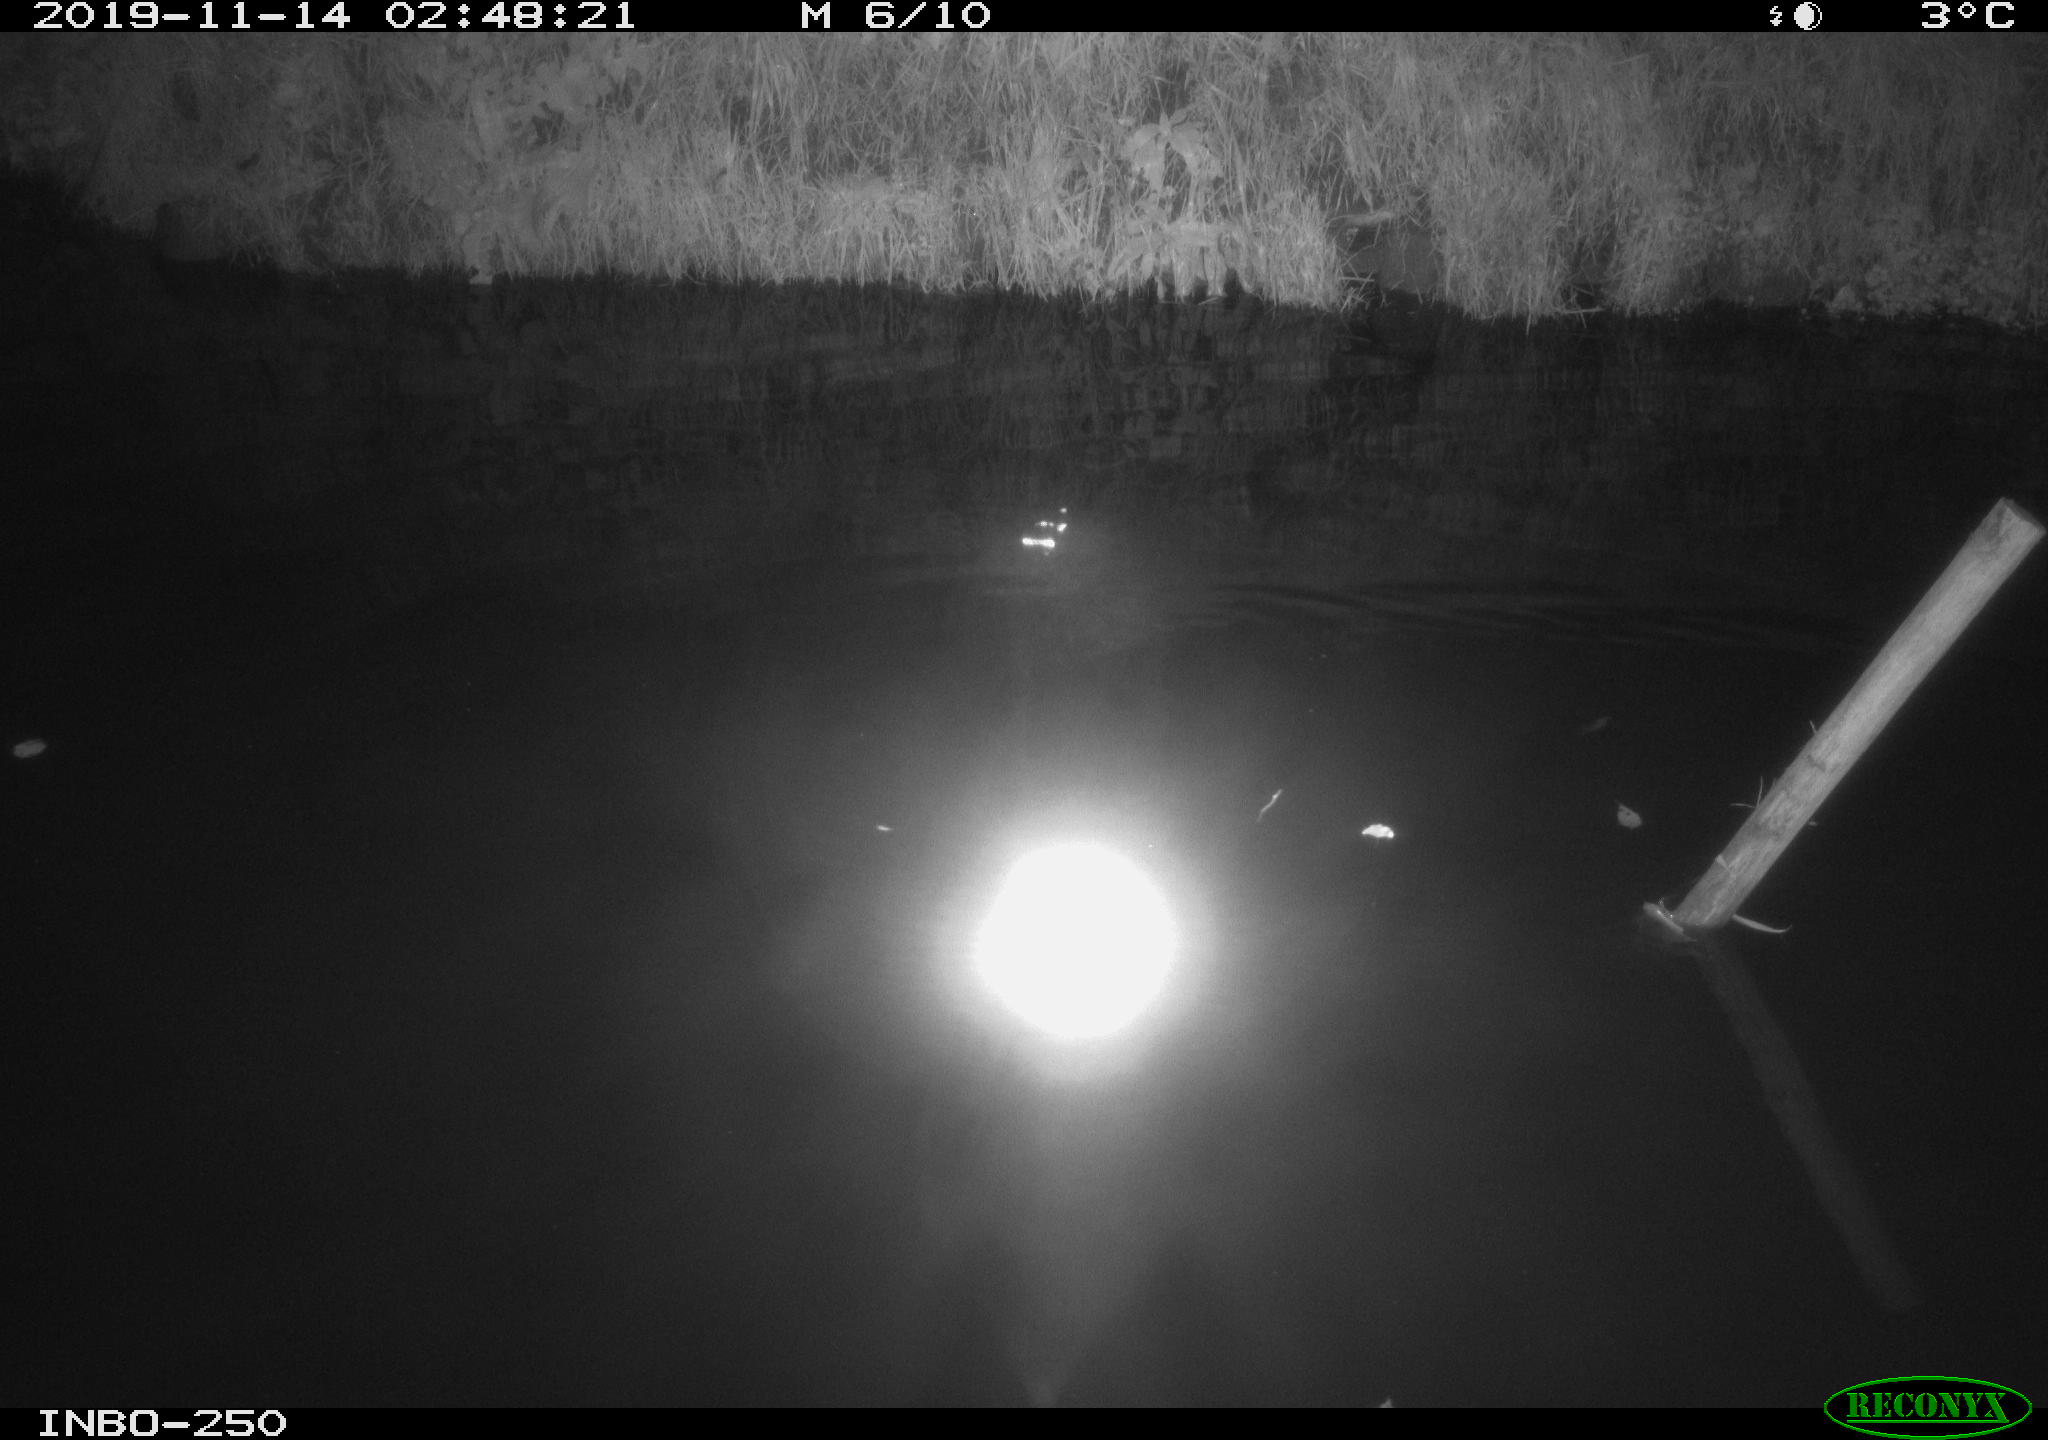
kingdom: Animalia
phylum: Chordata
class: Aves
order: Anseriformes
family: Anatidae
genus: Anas
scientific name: Anas platyrhynchos
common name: Mallard
